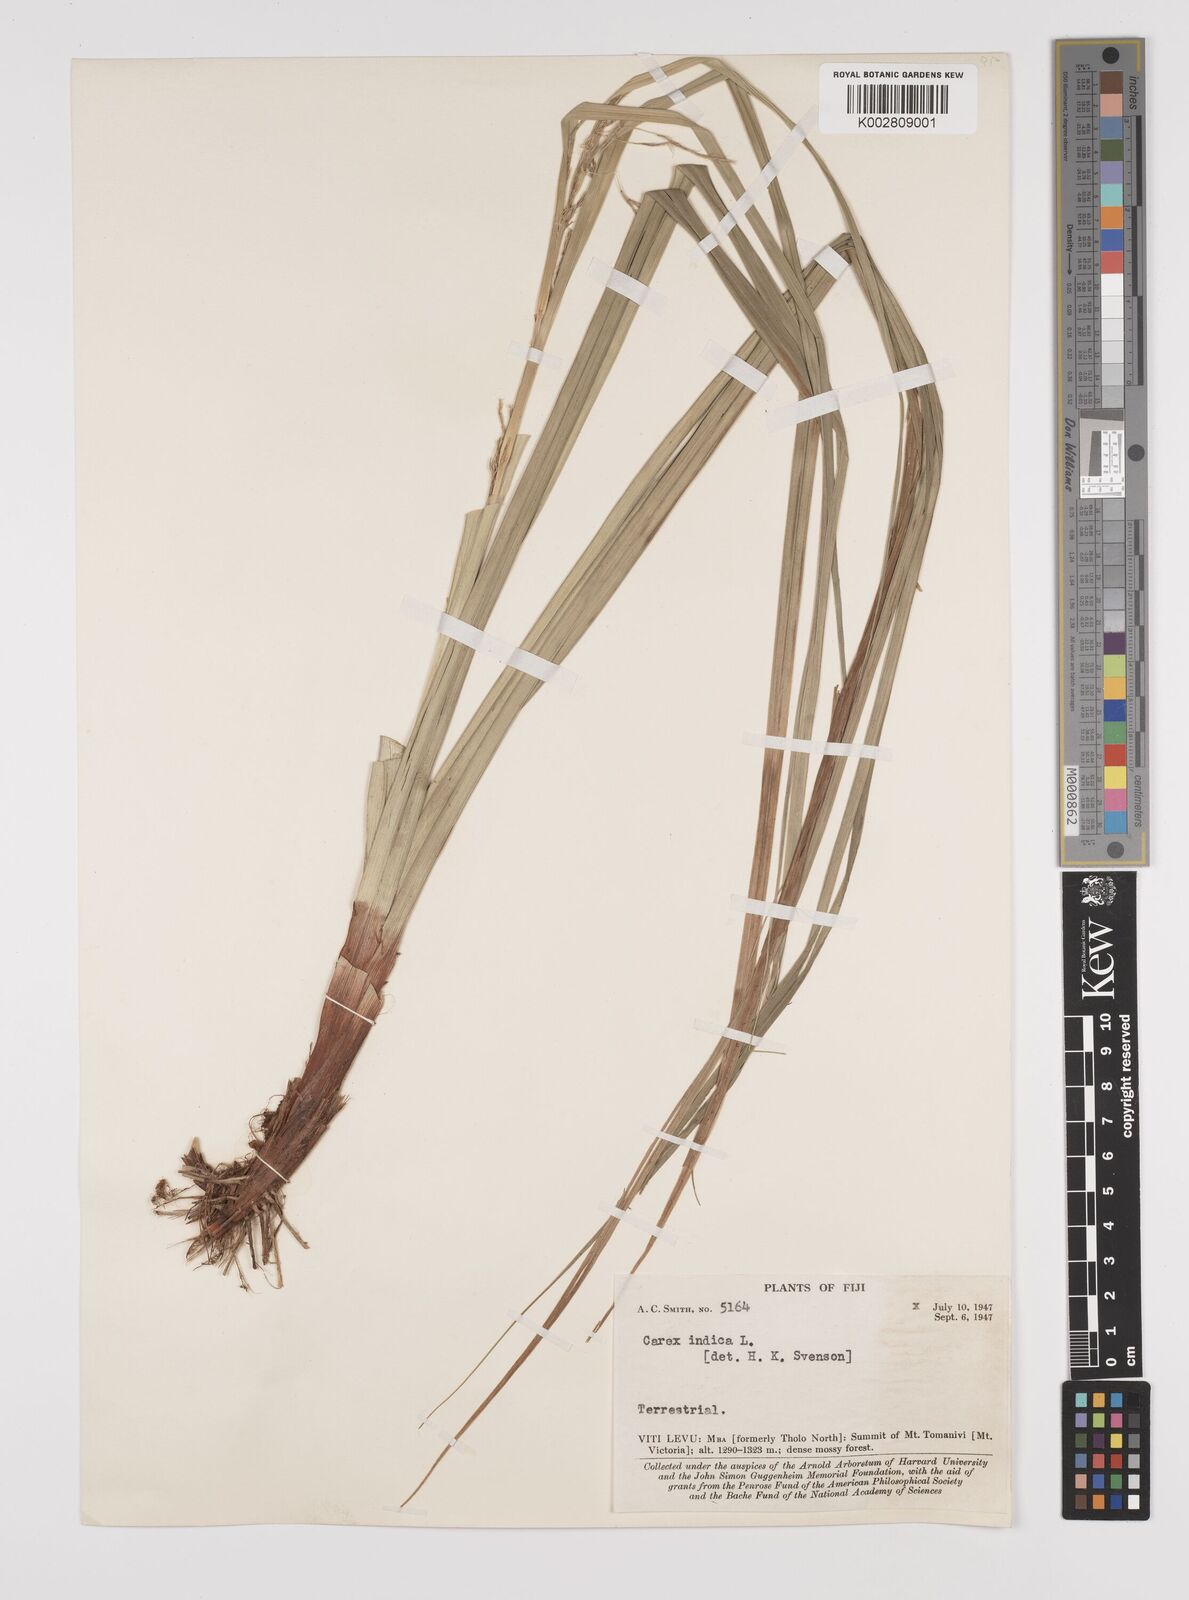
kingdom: Plantae
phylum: Tracheophyta
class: Liliopsida
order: Poales
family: Cyperaceae
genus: Carex
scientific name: Carex indica
